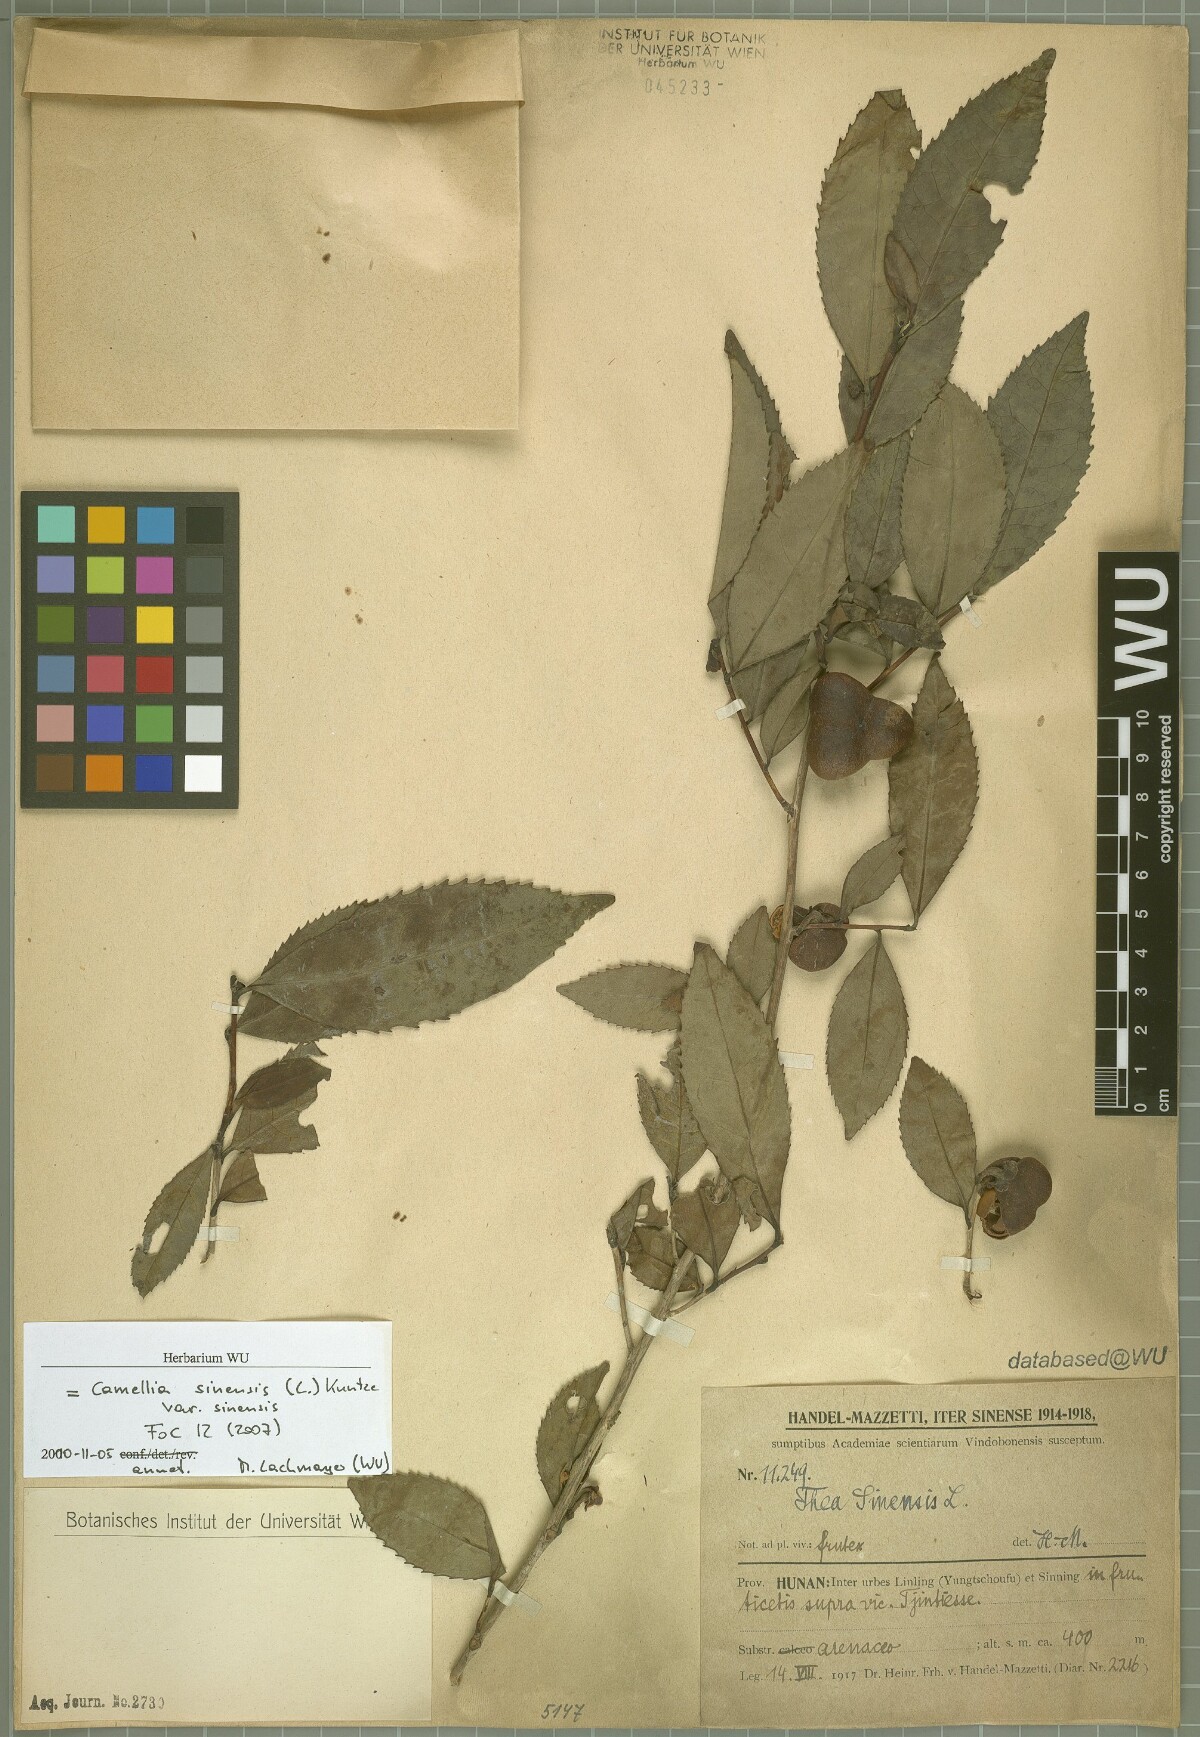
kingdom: Plantae
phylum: Tracheophyta
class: Magnoliopsida
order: Ericales
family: Theaceae
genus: Camellia
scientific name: Camellia sinensis
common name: Tea
